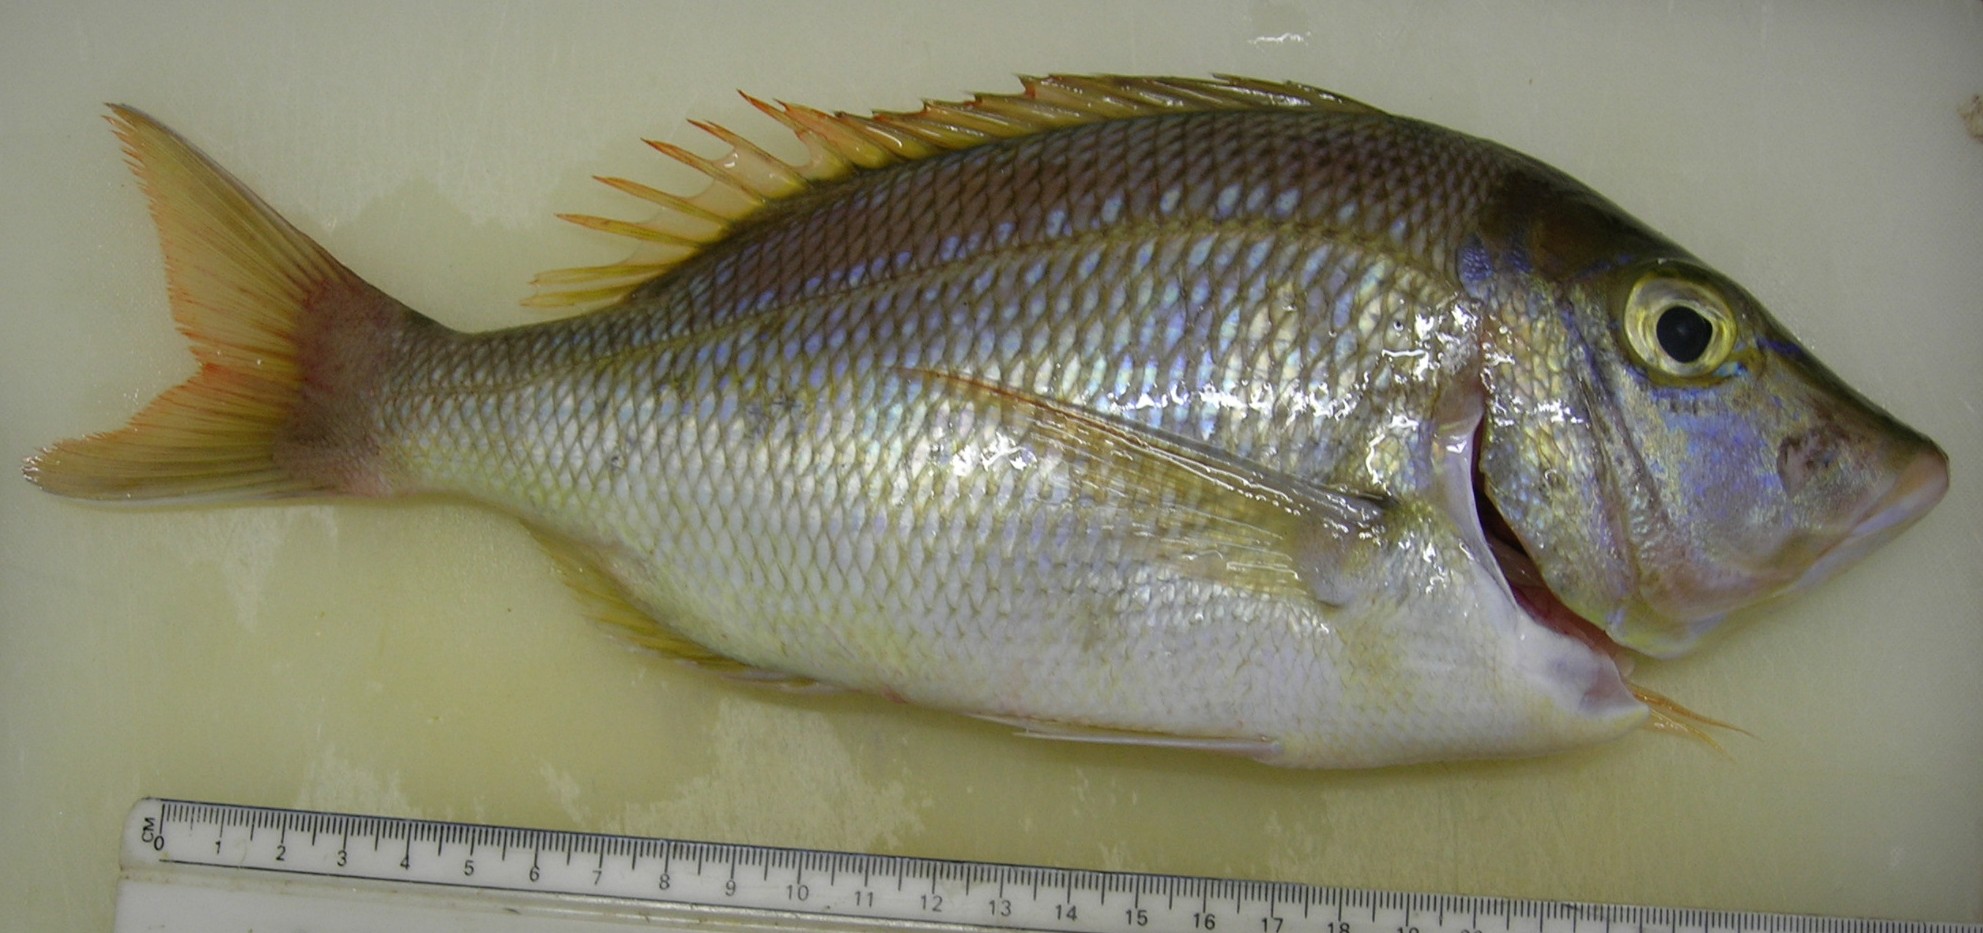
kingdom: Animalia
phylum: Chordata
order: Perciformes
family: Lethrinidae
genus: Lethrinus
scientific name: Lethrinus nebulosus
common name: Spangled emperor
